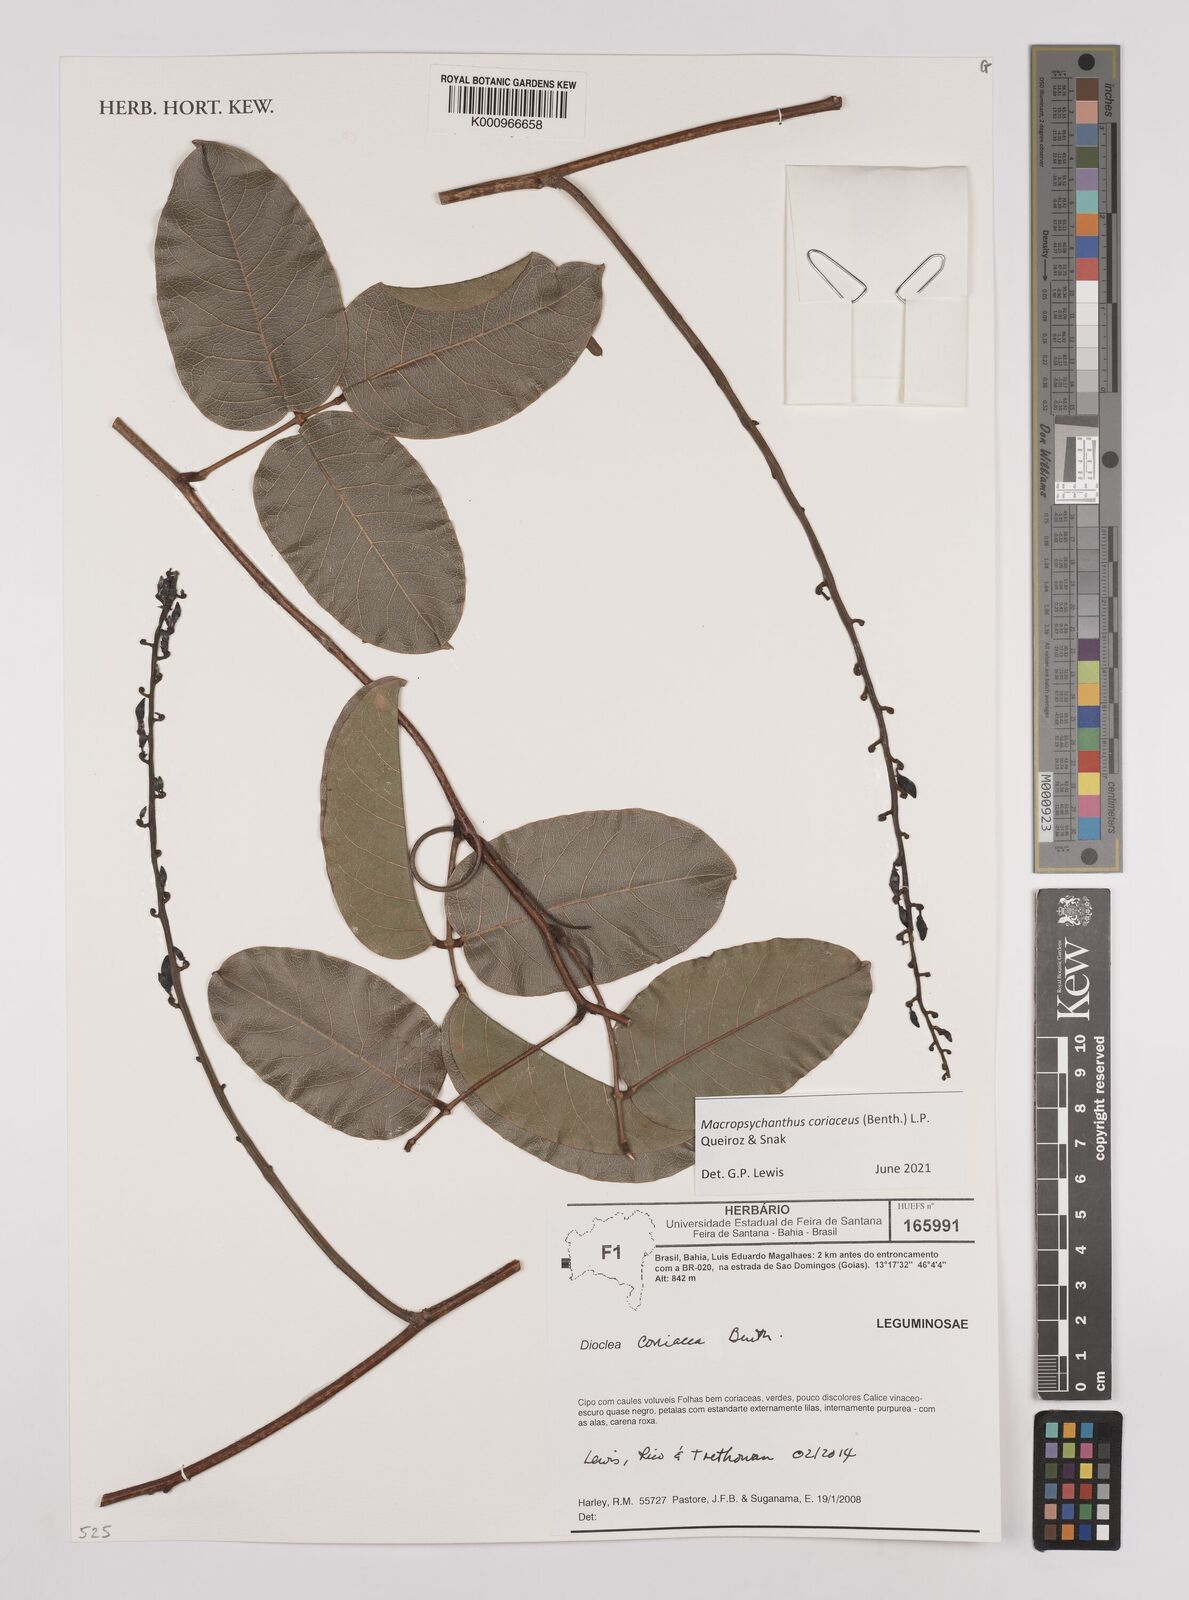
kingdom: Plantae
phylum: Tracheophyta
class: Magnoliopsida
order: Fabales
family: Fabaceae
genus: Macropsychanthus
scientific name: Macropsychanthus coriaceus
